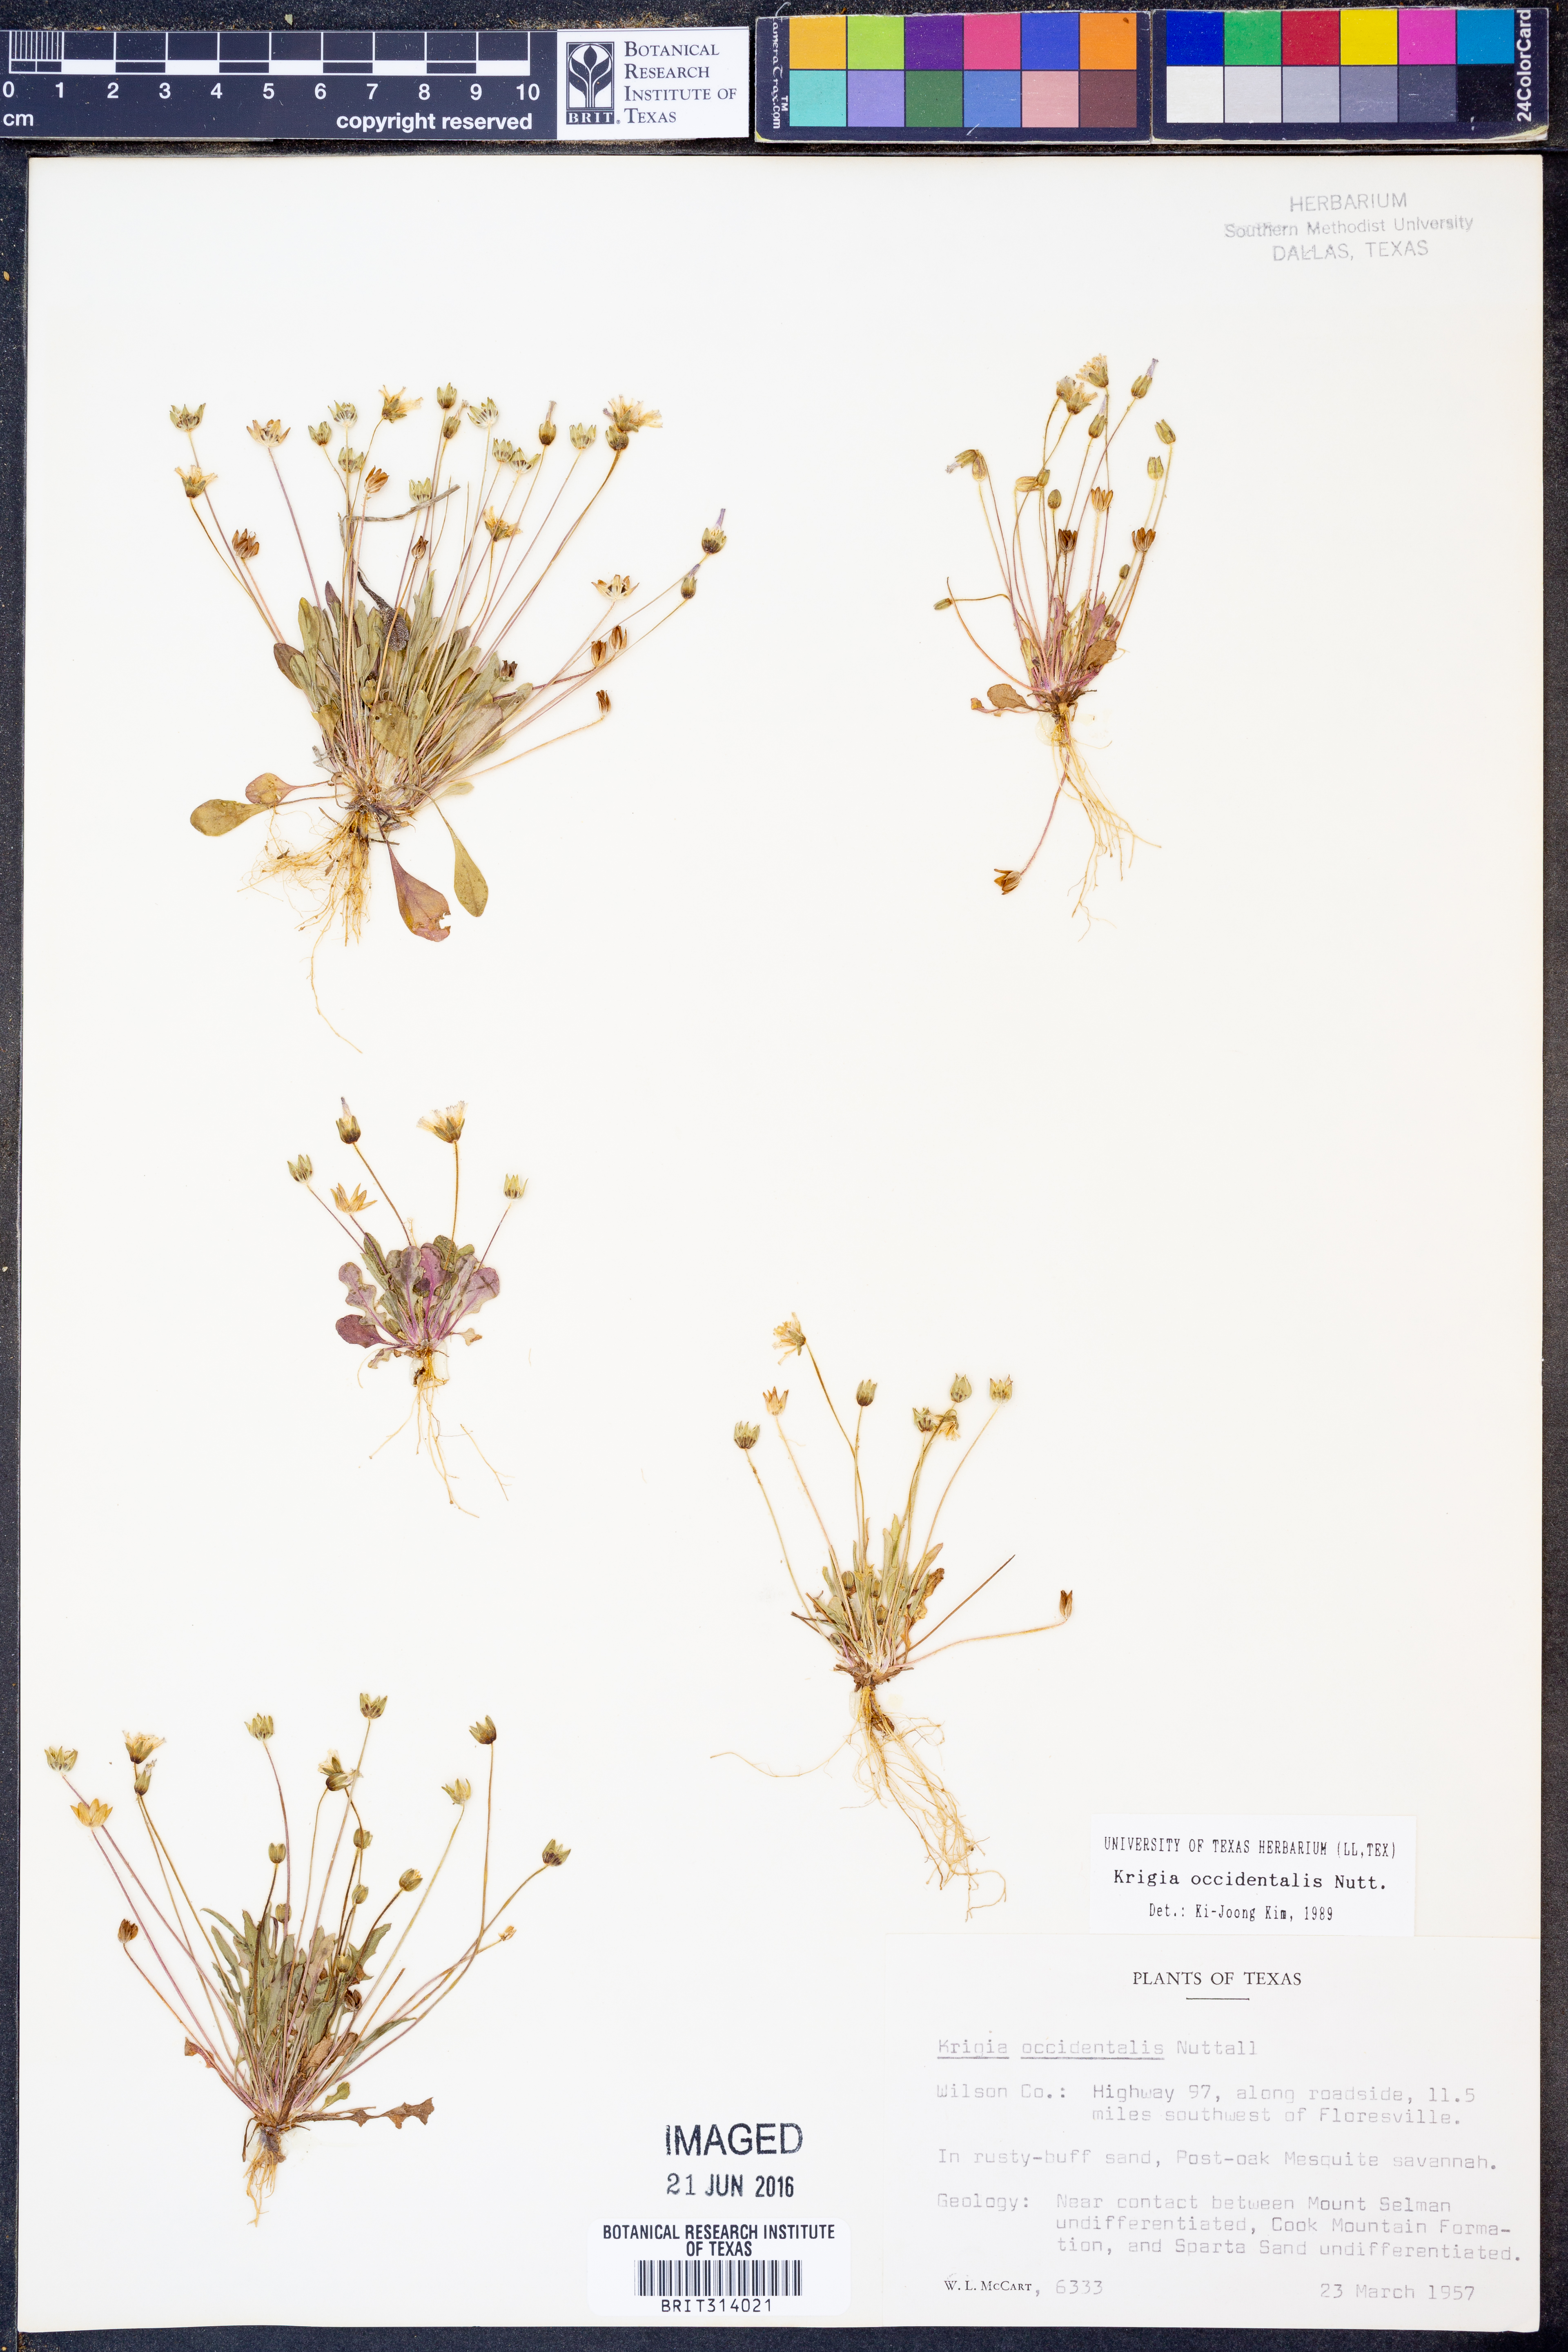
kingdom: Plantae
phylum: Tracheophyta
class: Magnoliopsida
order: Asterales
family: Asteraceae
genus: Krigia
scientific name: Krigia occidentalis
